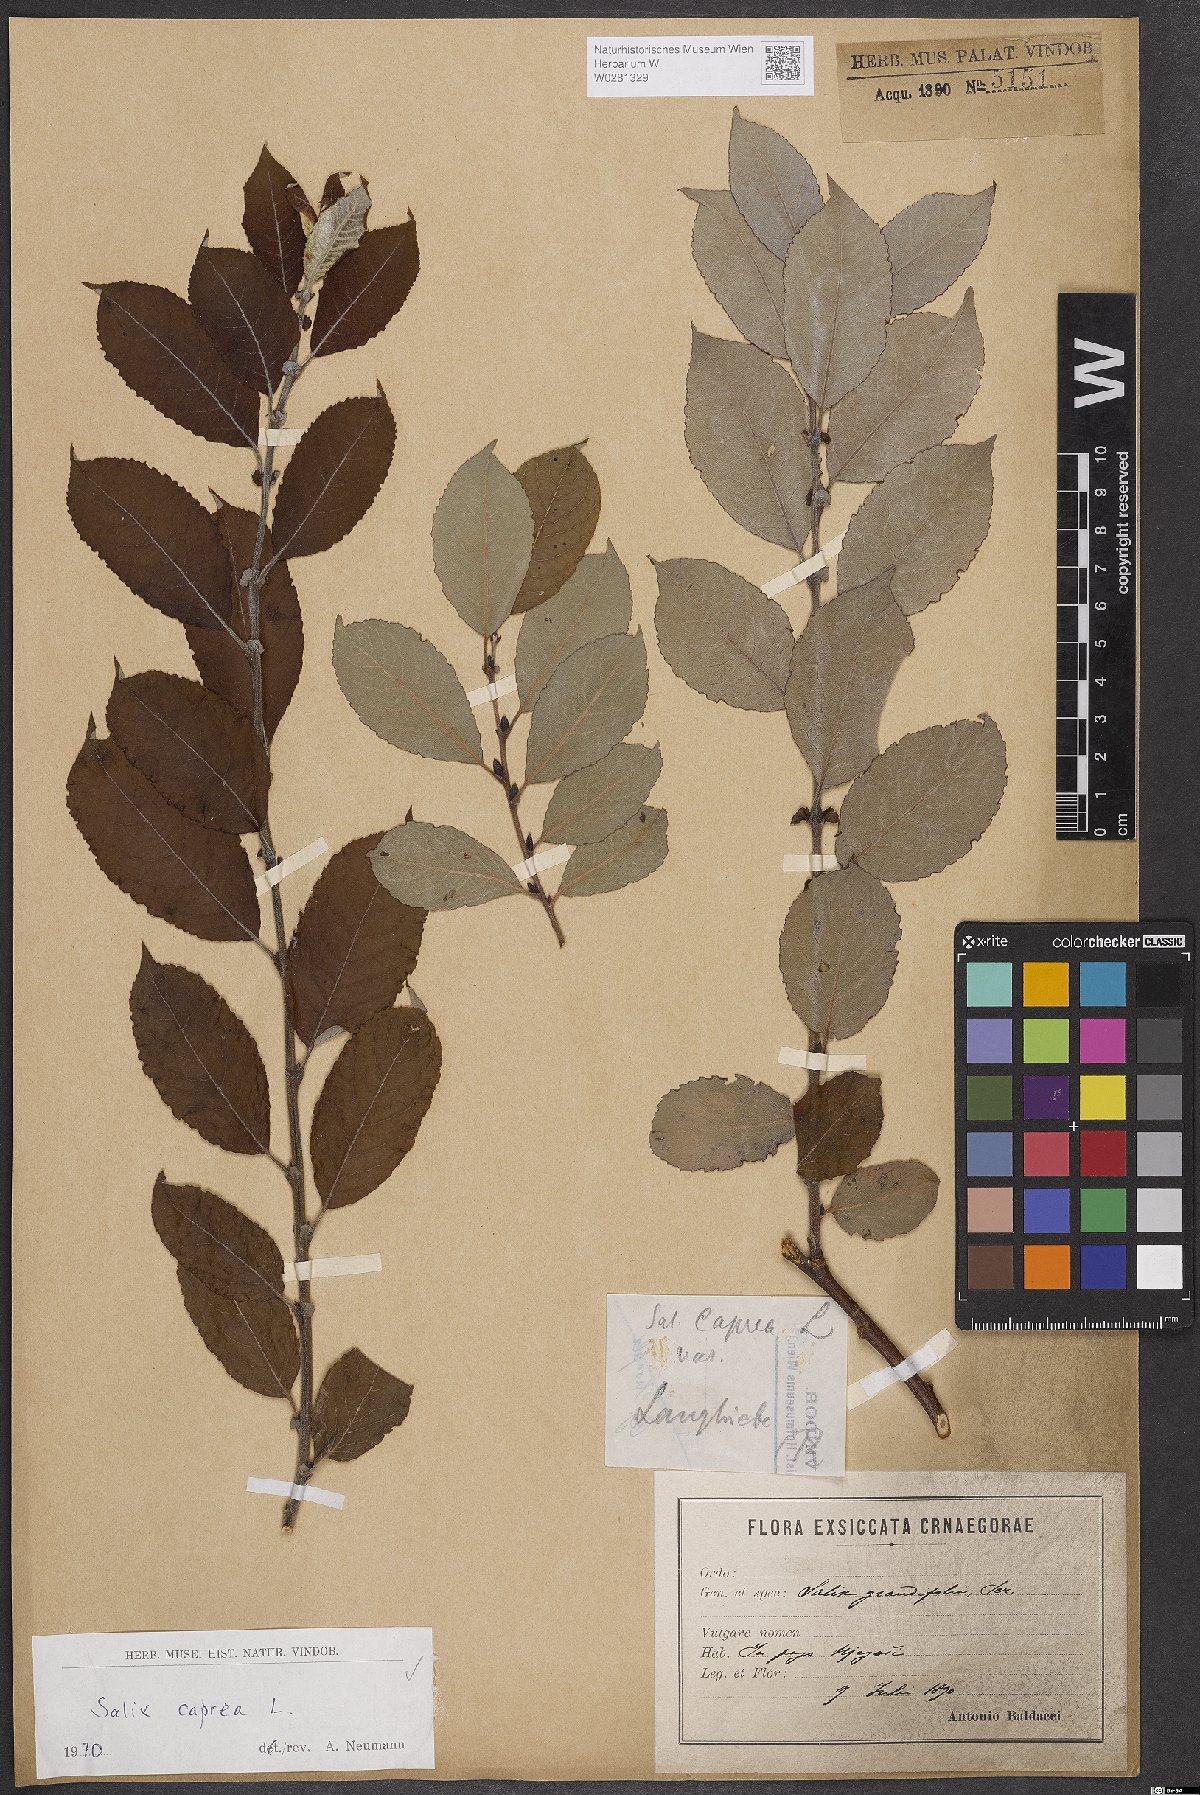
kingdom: Plantae
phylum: Tracheophyta
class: Magnoliopsida
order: Malpighiales
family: Salicaceae
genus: Salix
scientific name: Salix caprea
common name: Goat willow
